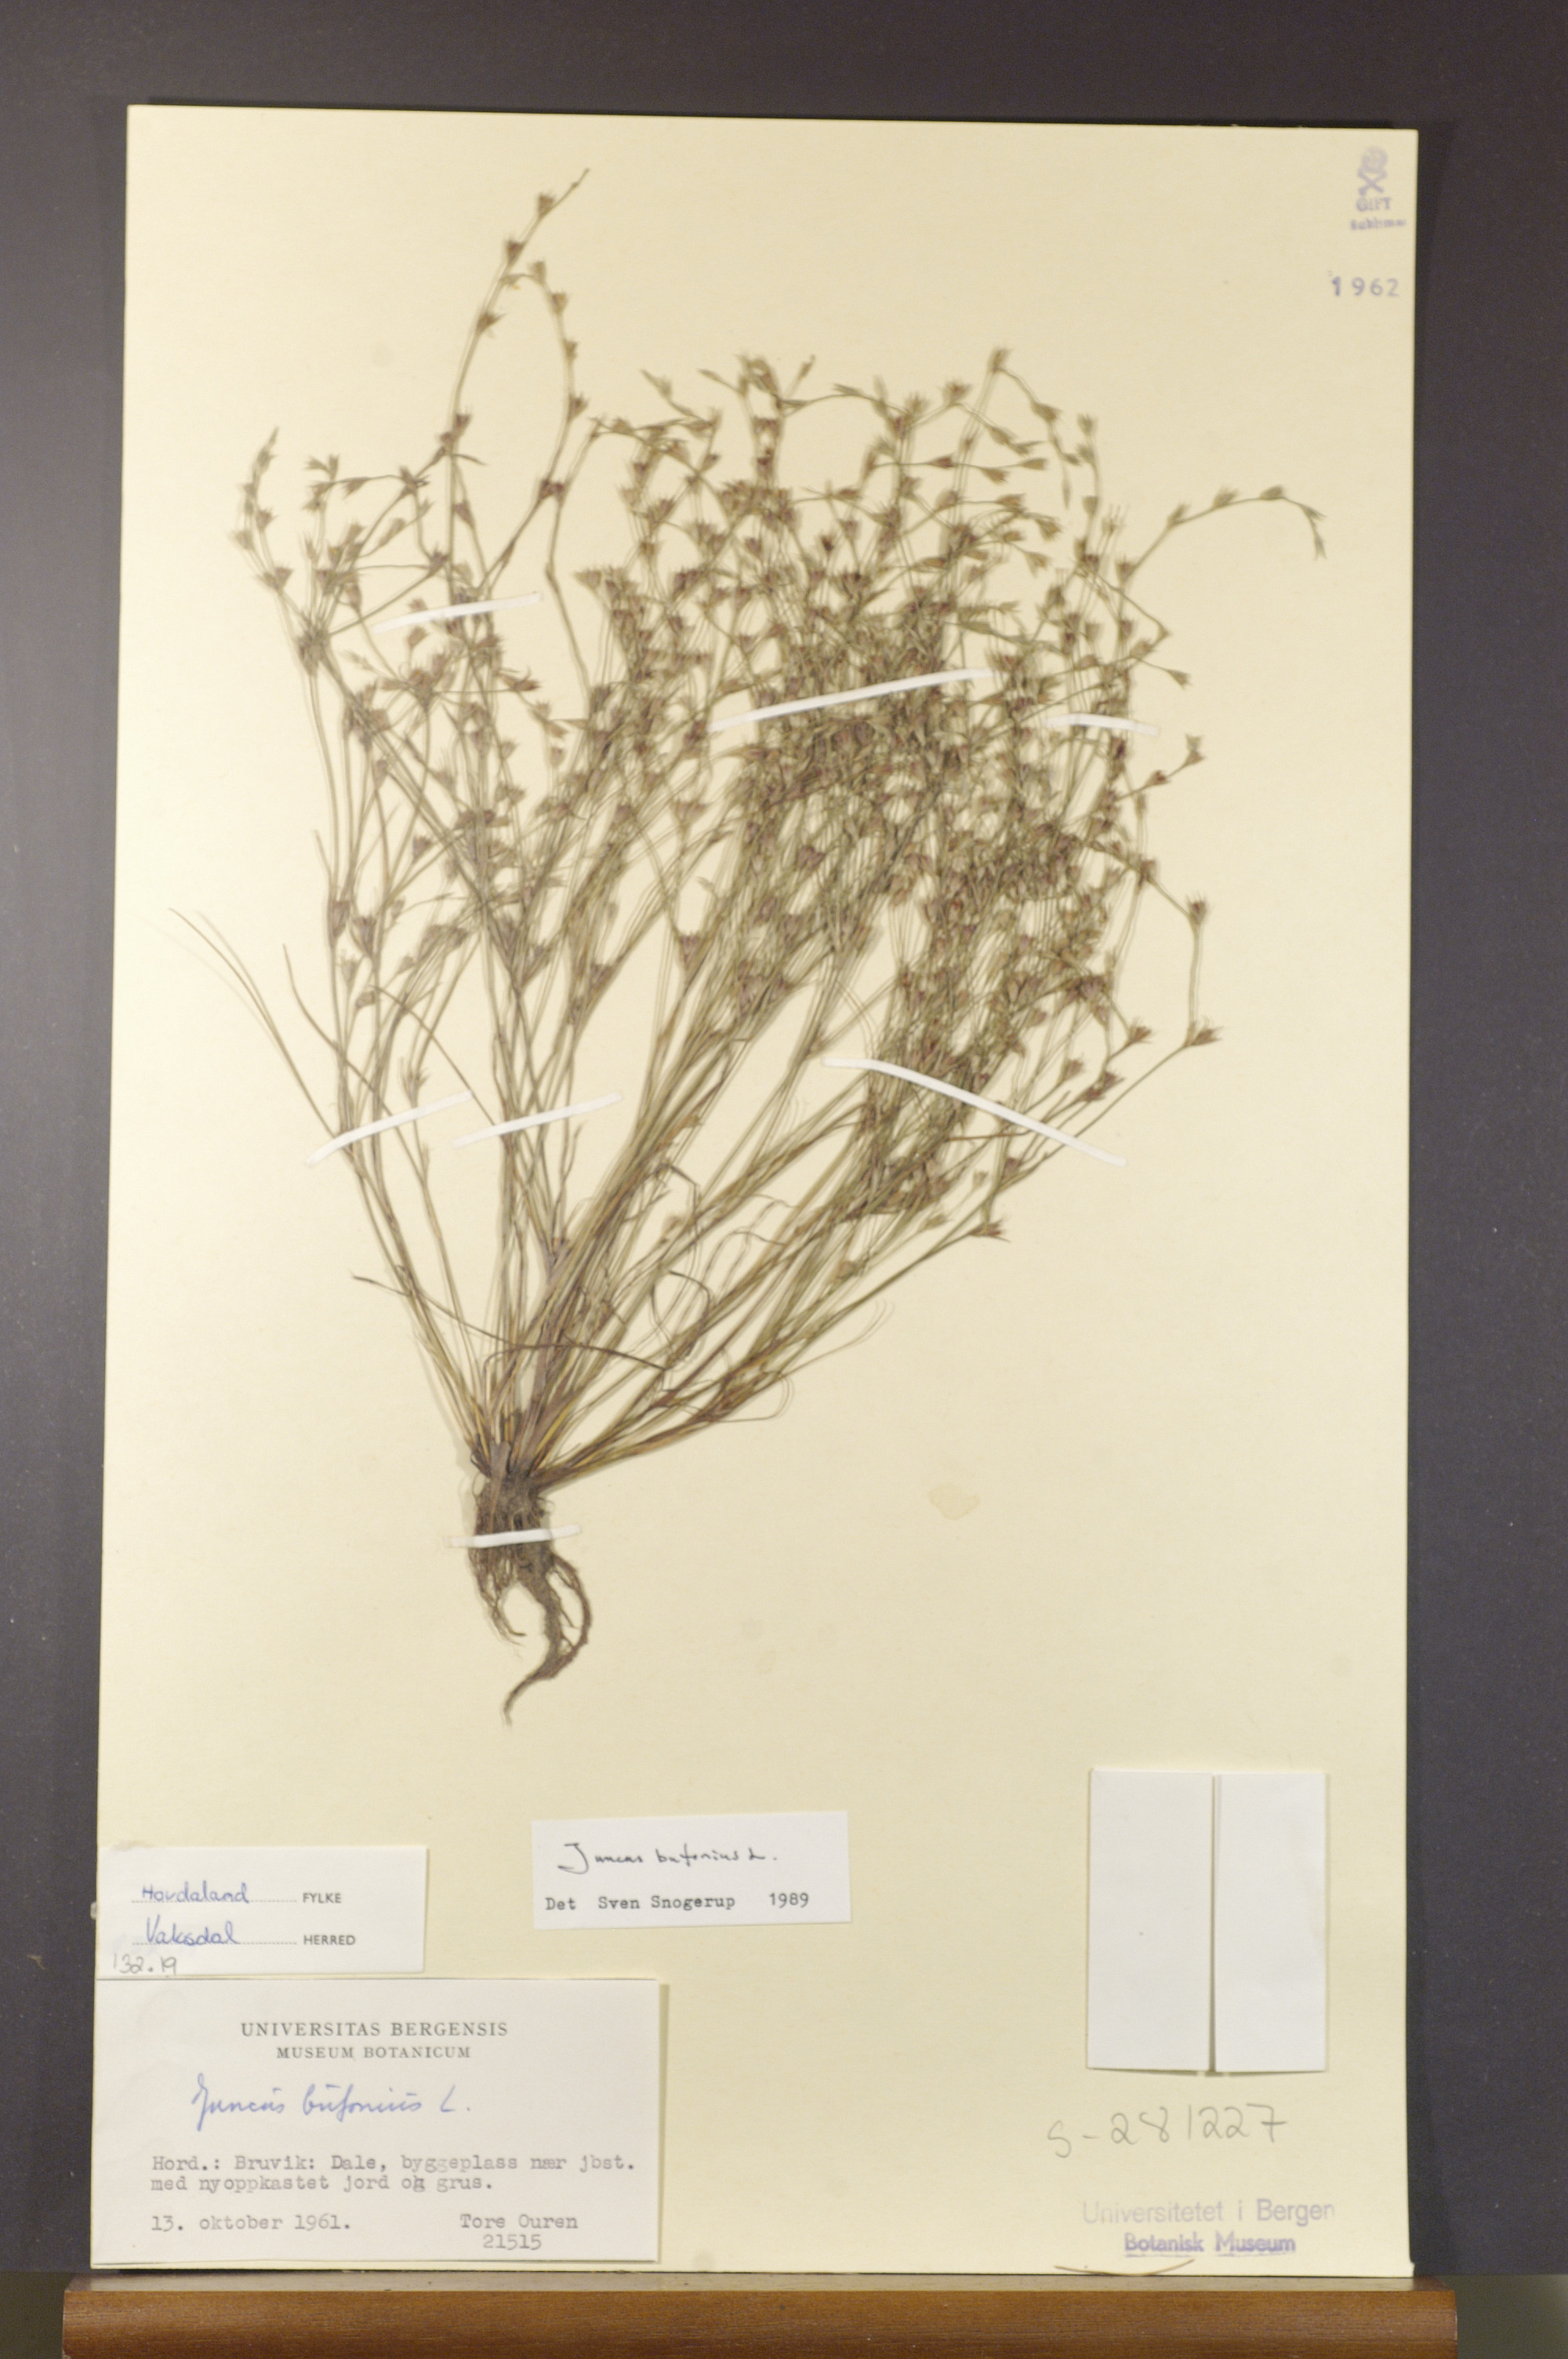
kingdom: Plantae
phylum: Tracheophyta
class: Liliopsida
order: Poales
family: Juncaceae
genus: Juncus
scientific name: Juncus bufonius
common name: Toad rush
